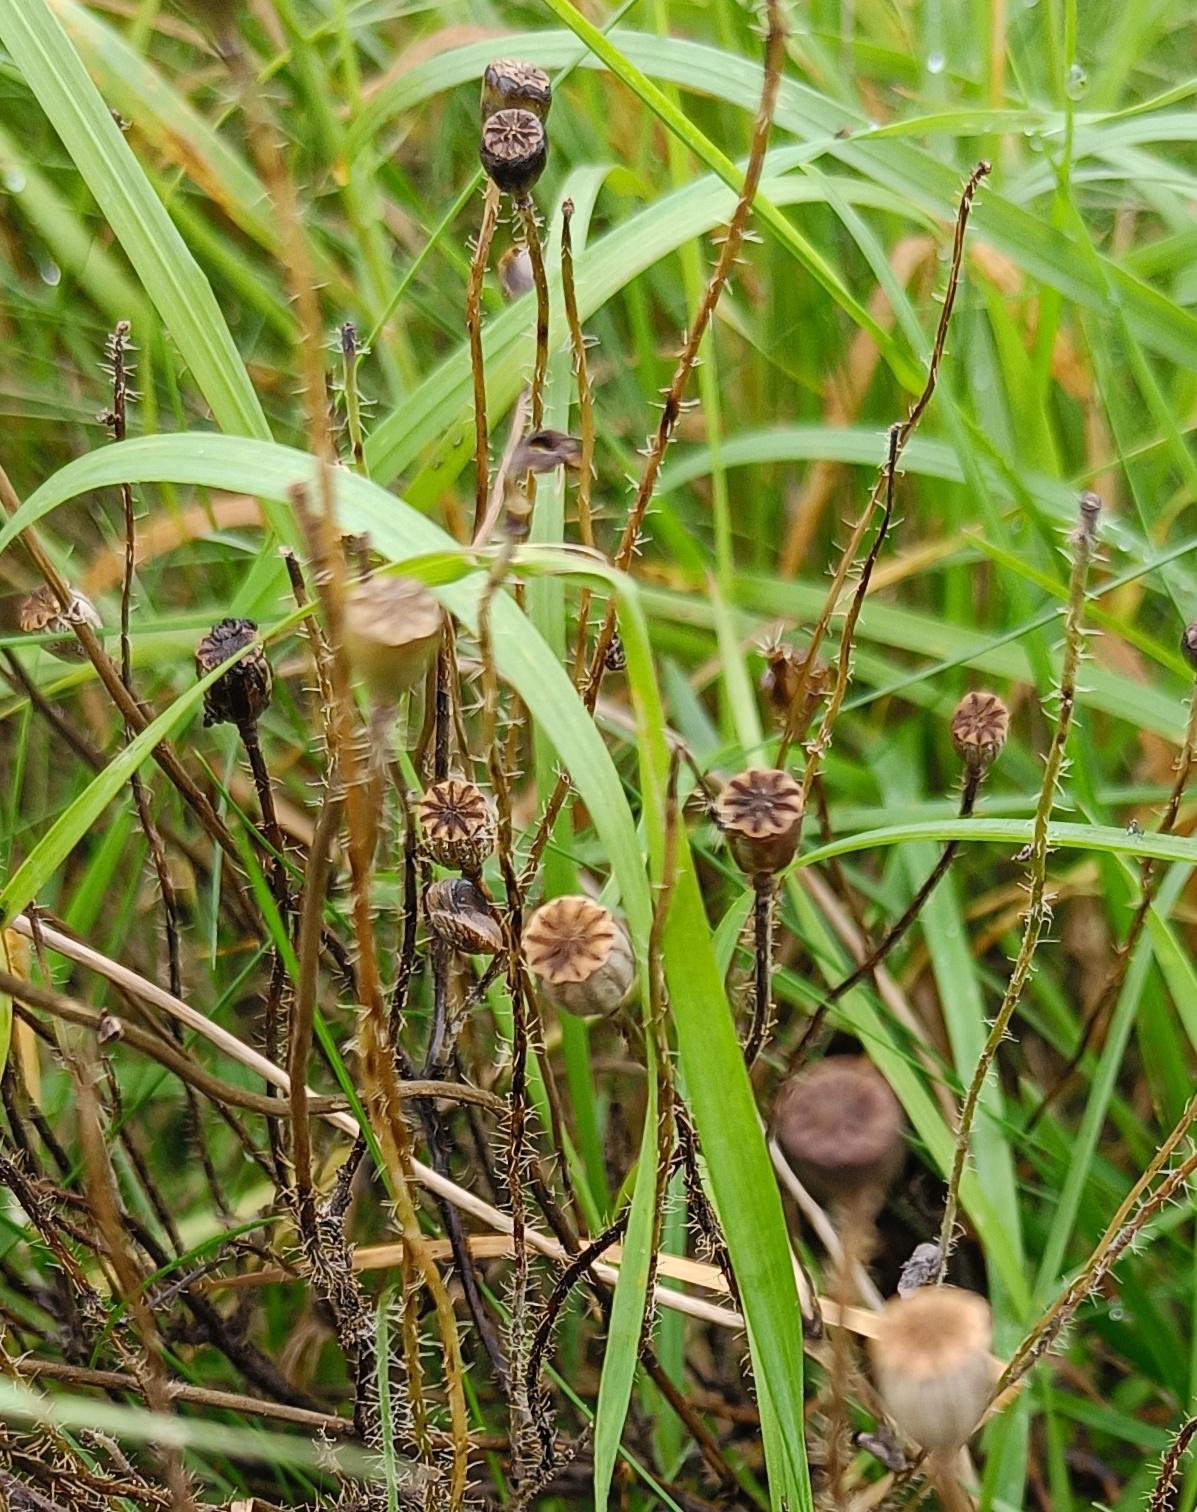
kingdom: Plantae
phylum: Tracheophyta
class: Magnoliopsida
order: Ranunculales
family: Papaveraceae
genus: Papaver
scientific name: Papaver rhoeas
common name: Korn-valmue
